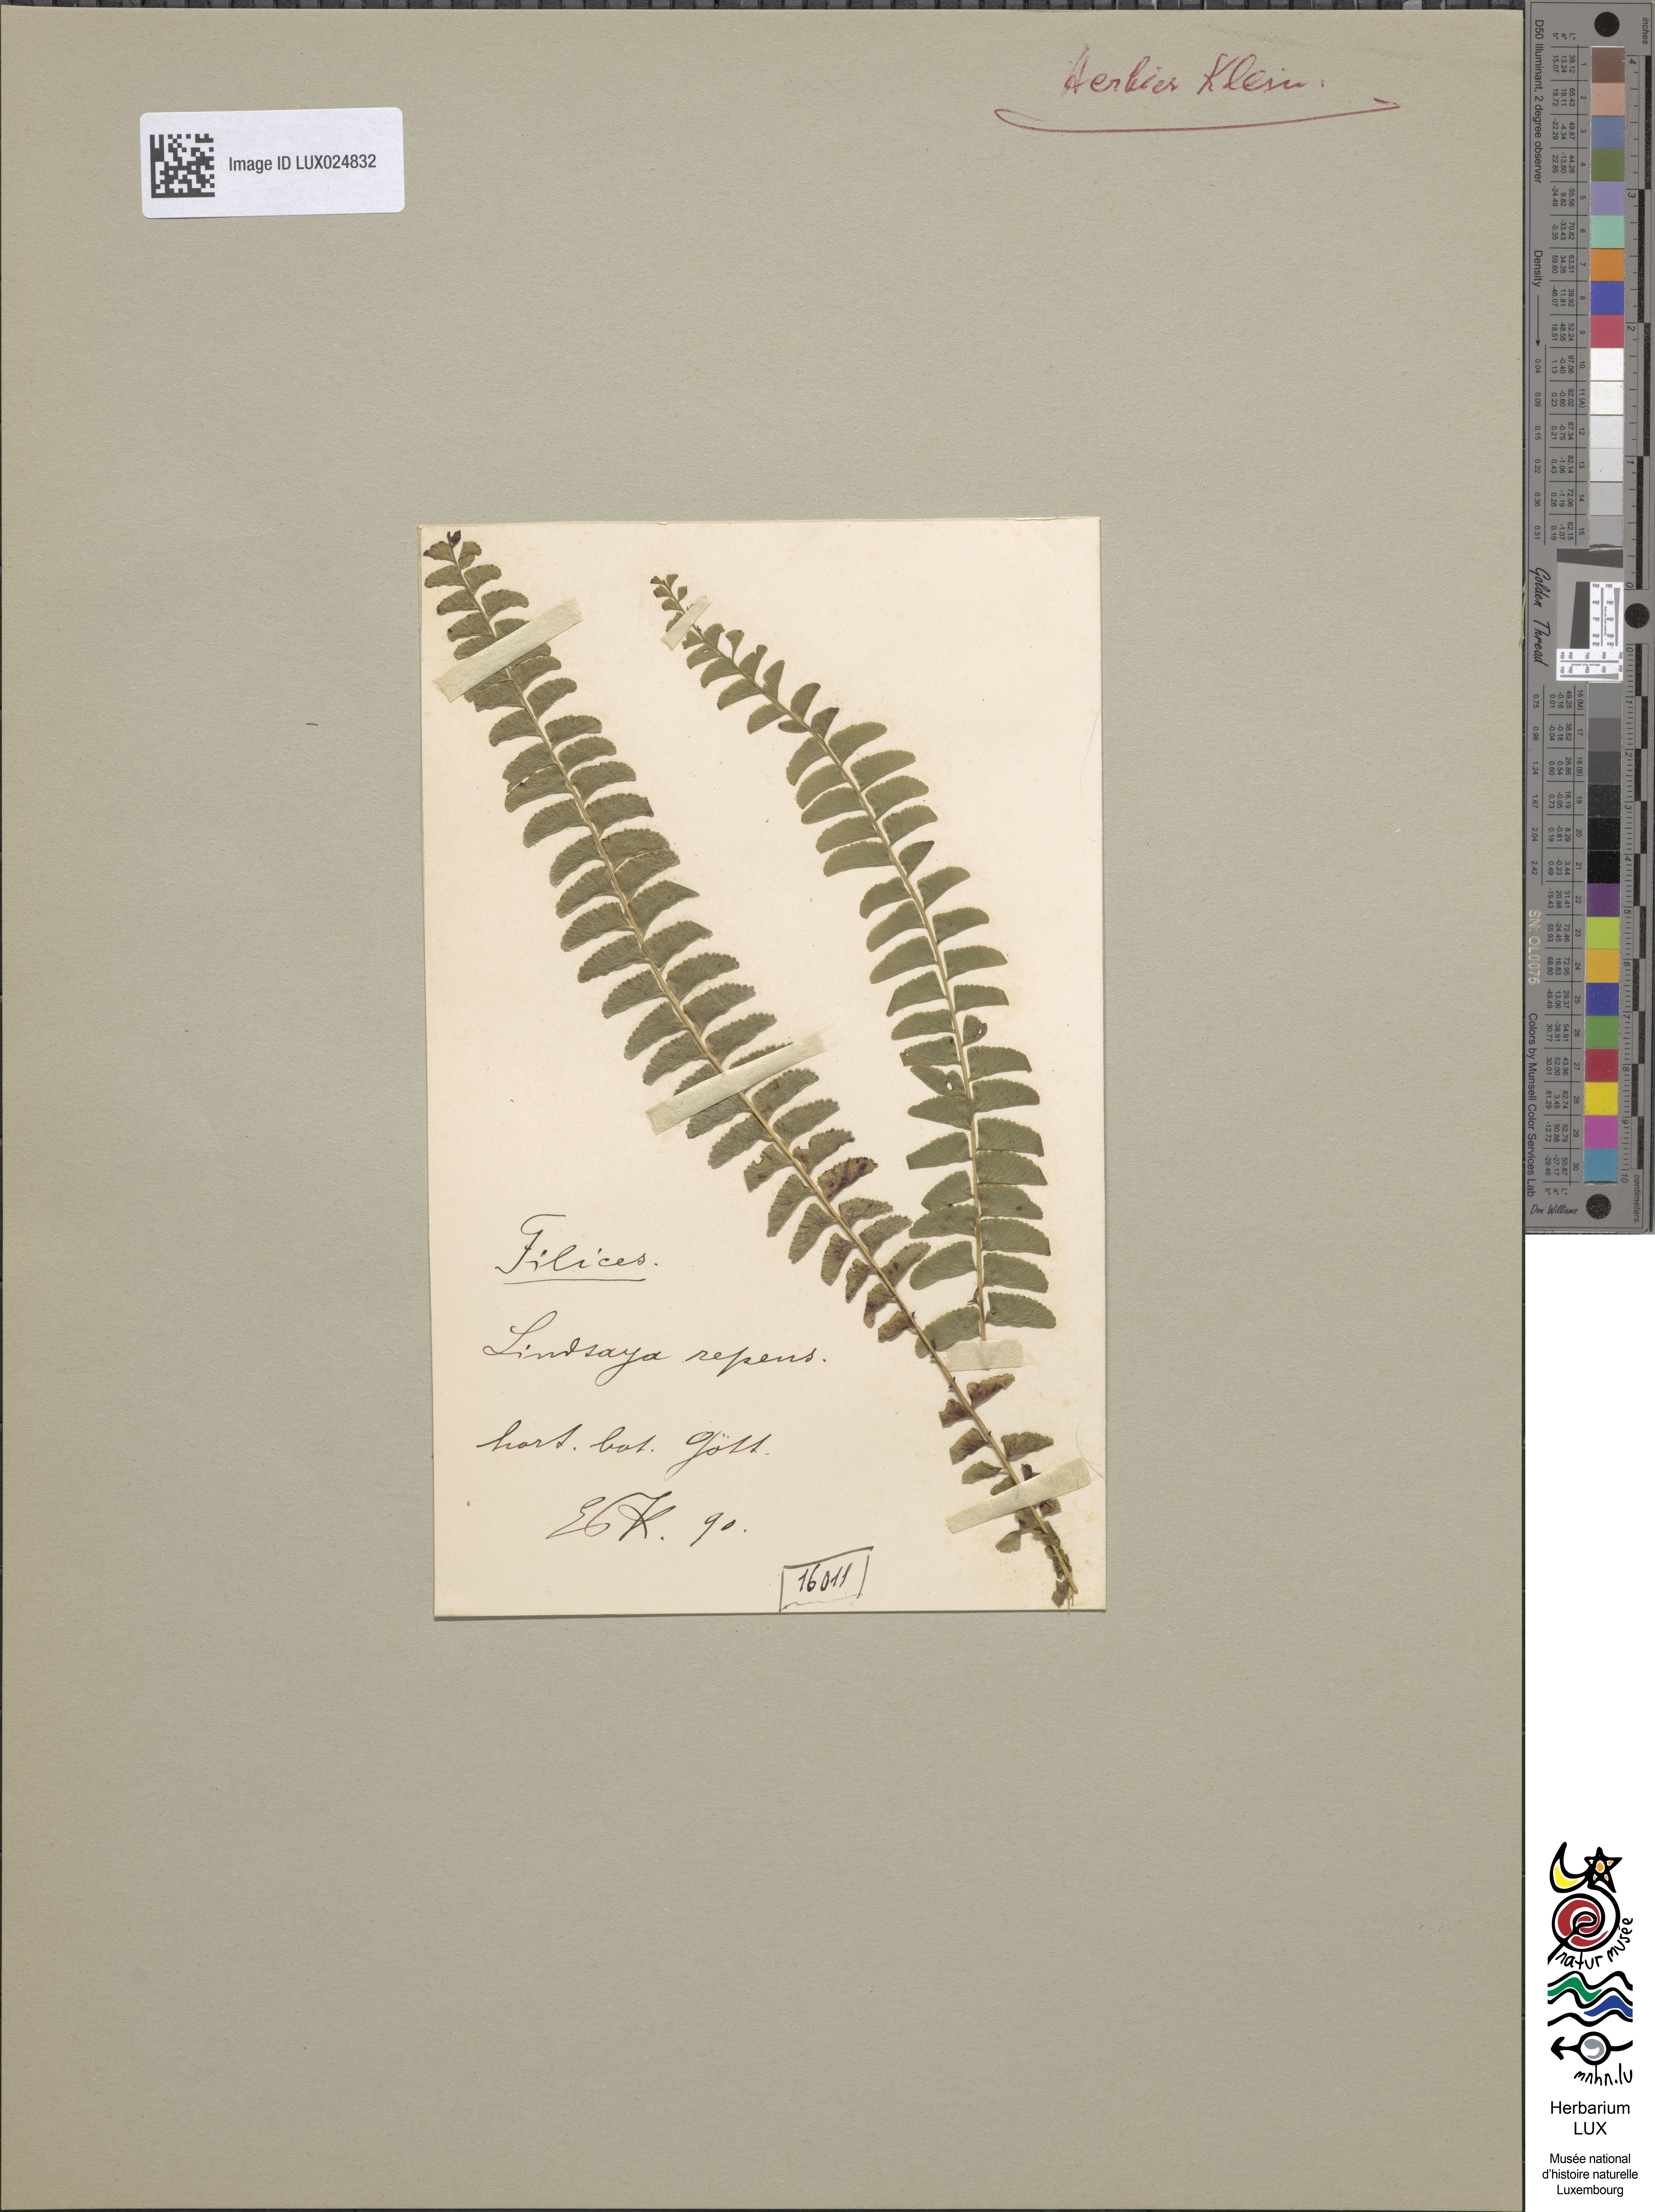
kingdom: Plantae
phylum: Tracheophyta
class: Polypodiopsida
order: Polypodiales
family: Lindsaeaceae
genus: Lindsaea
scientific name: Lindsaea capillacea
